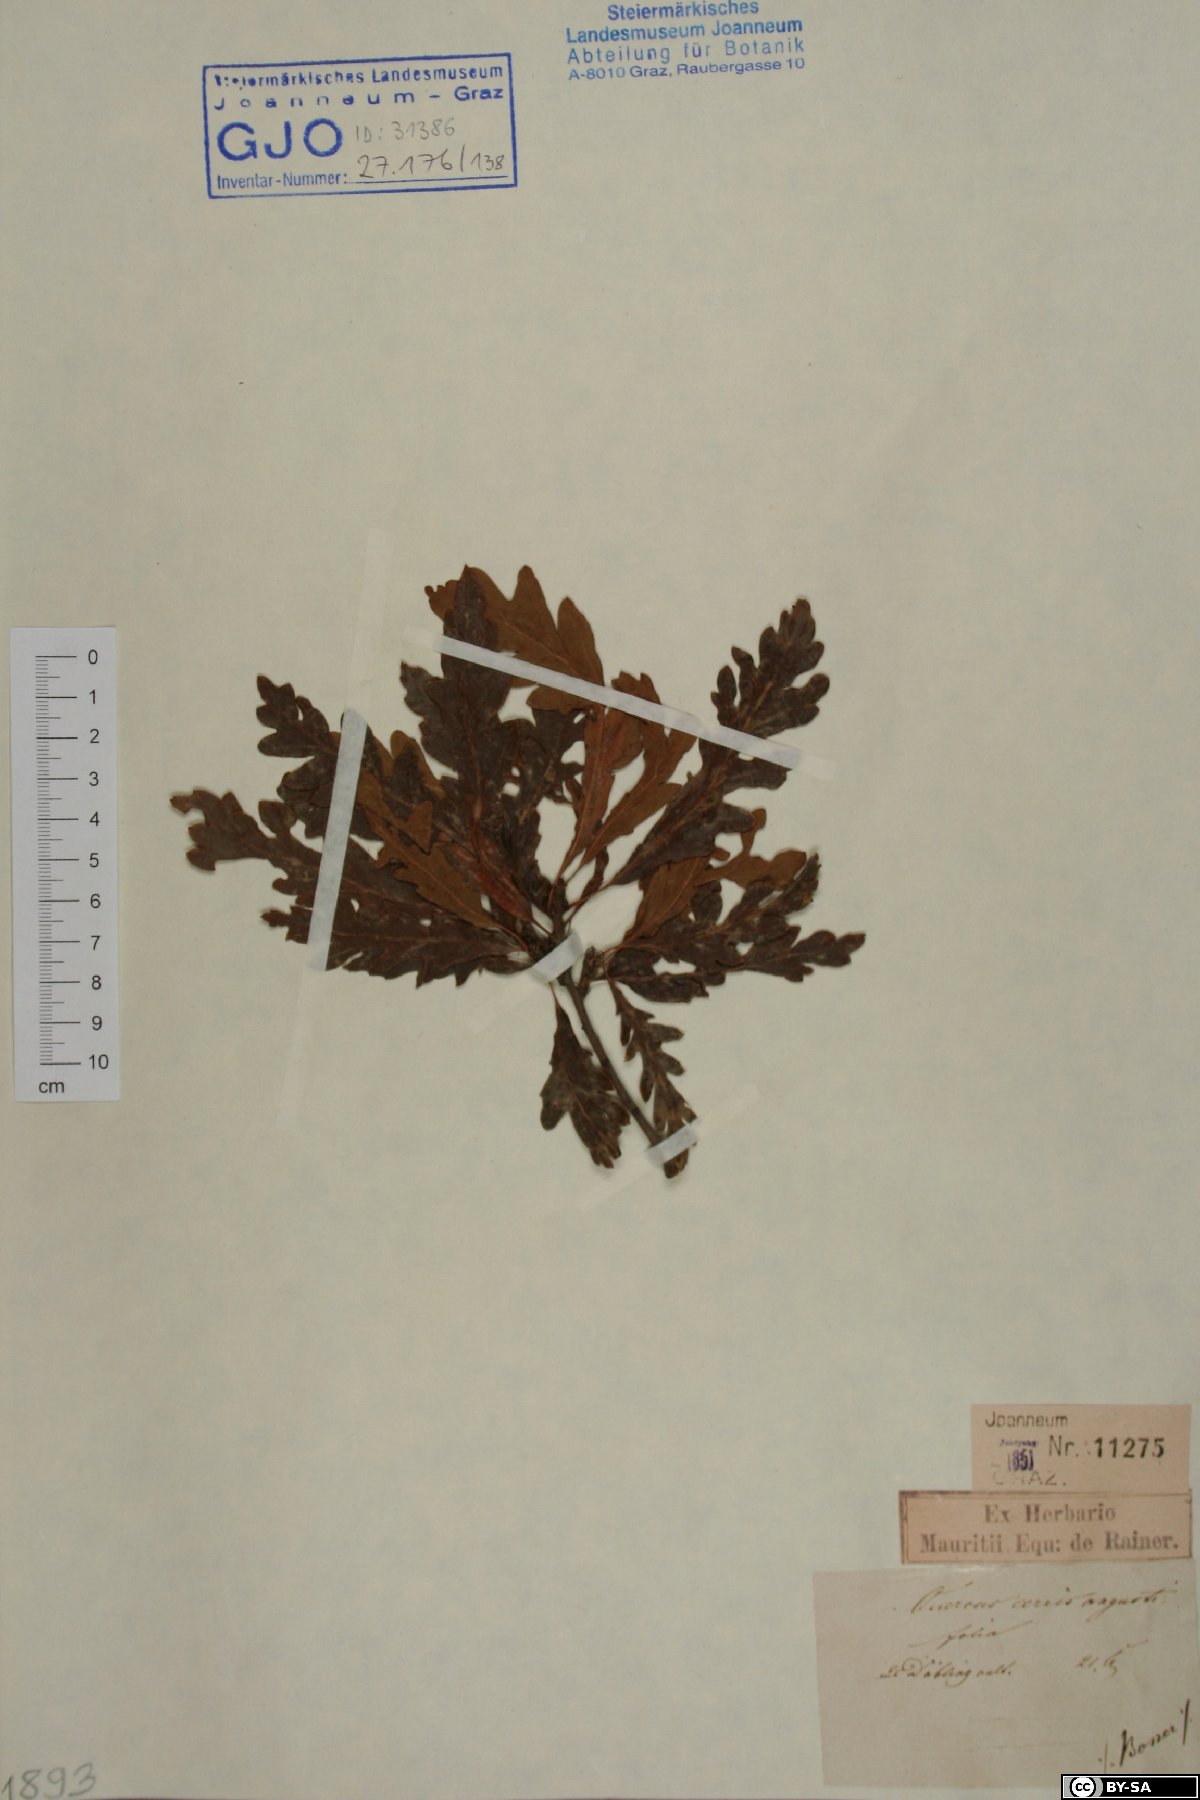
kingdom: Plantae
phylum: Tracheophyta
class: Magnoliopsida
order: Fagales
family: Fagaceae
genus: Quercus
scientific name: Quercus cerris
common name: Turkey oak
